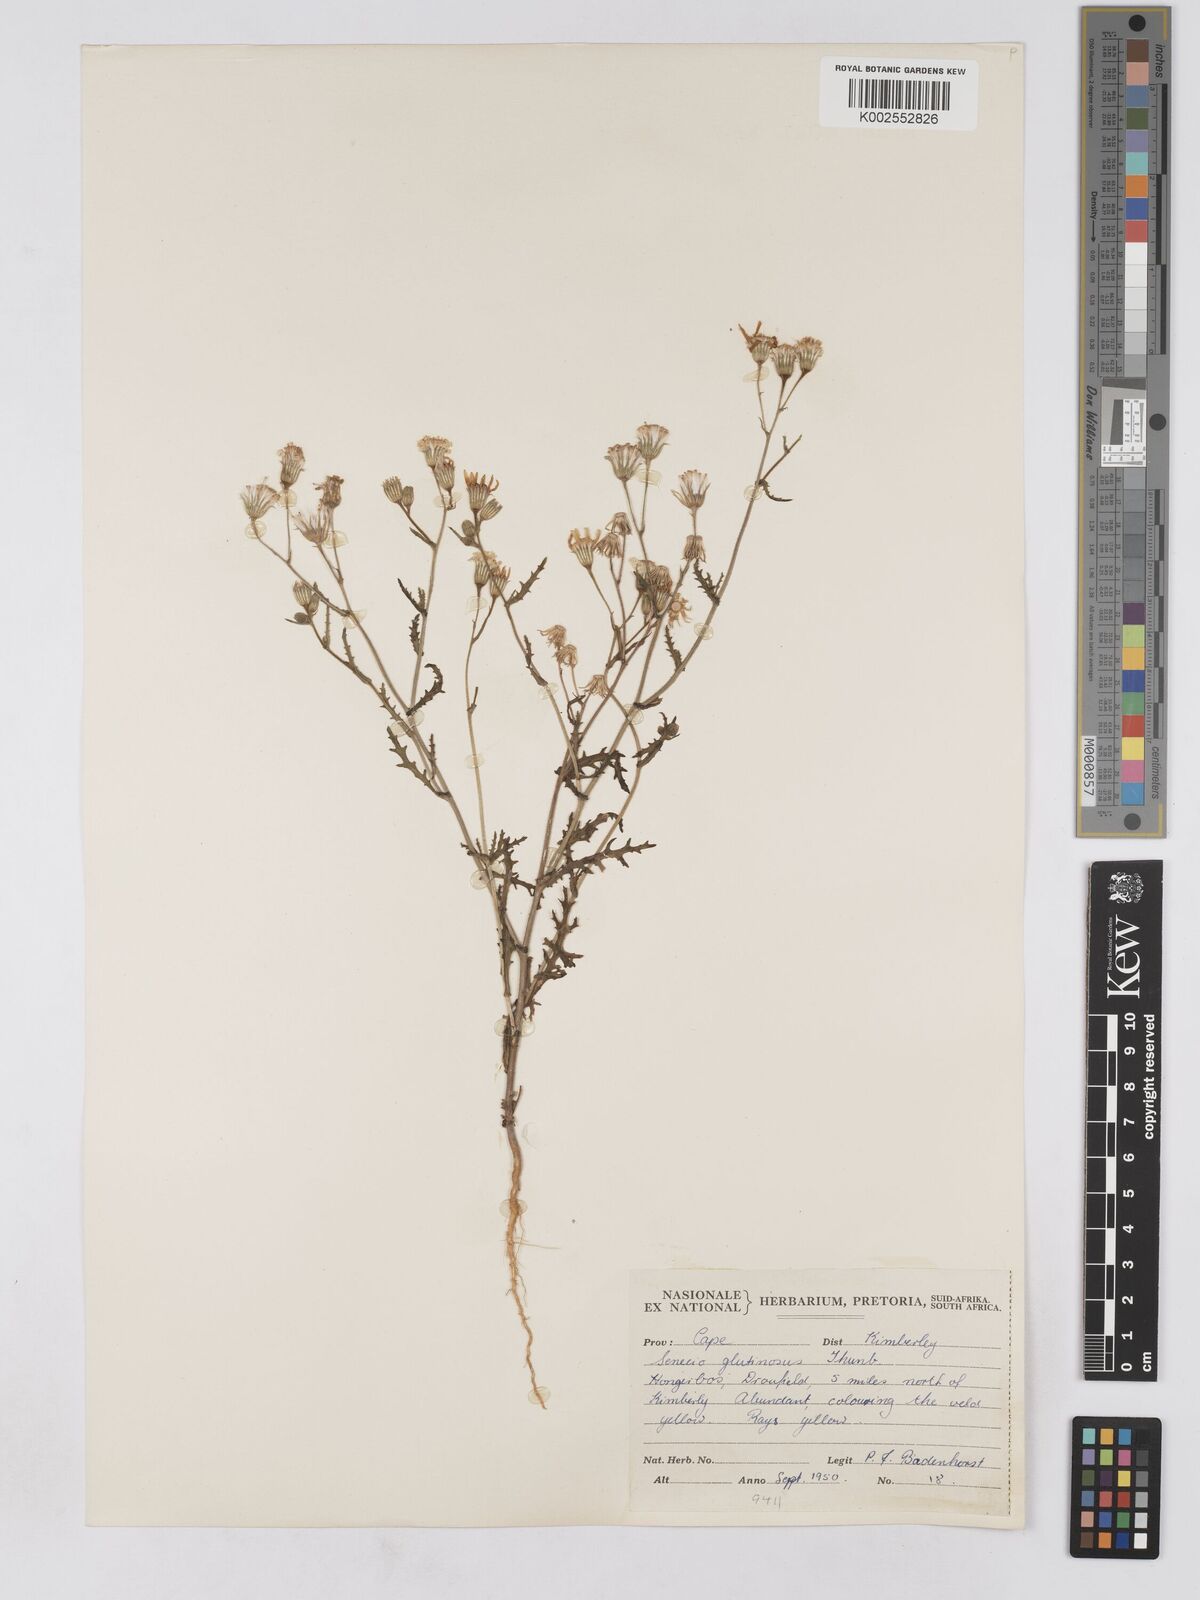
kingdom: Plantae
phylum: Tracheophyta
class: Magnoliopsida
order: Asterales
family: Asteraceae
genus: Senecio
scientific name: Senecio consanguineus
